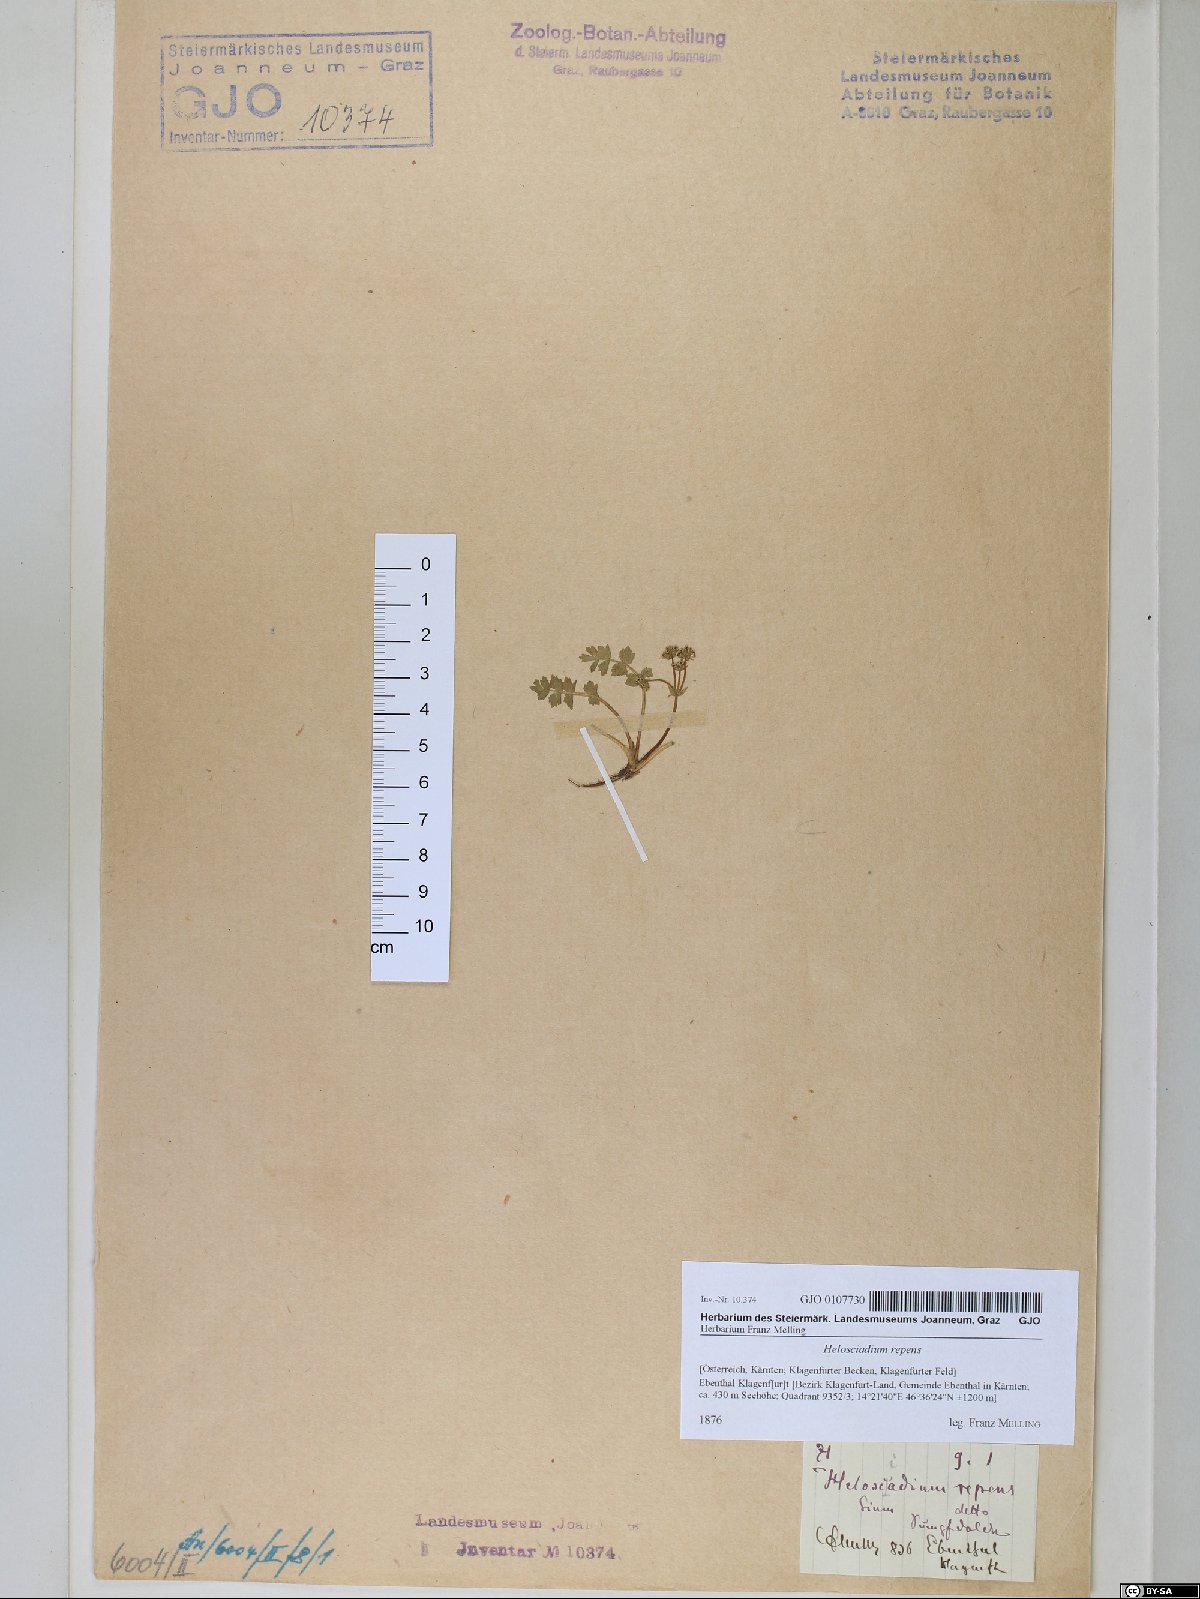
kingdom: Plantae
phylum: Tracheophyta
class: Magnoliopsida
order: Apiales
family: Apiaceae
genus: Helosciadium
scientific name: Helosciadium repens
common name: Creeping marshwort
